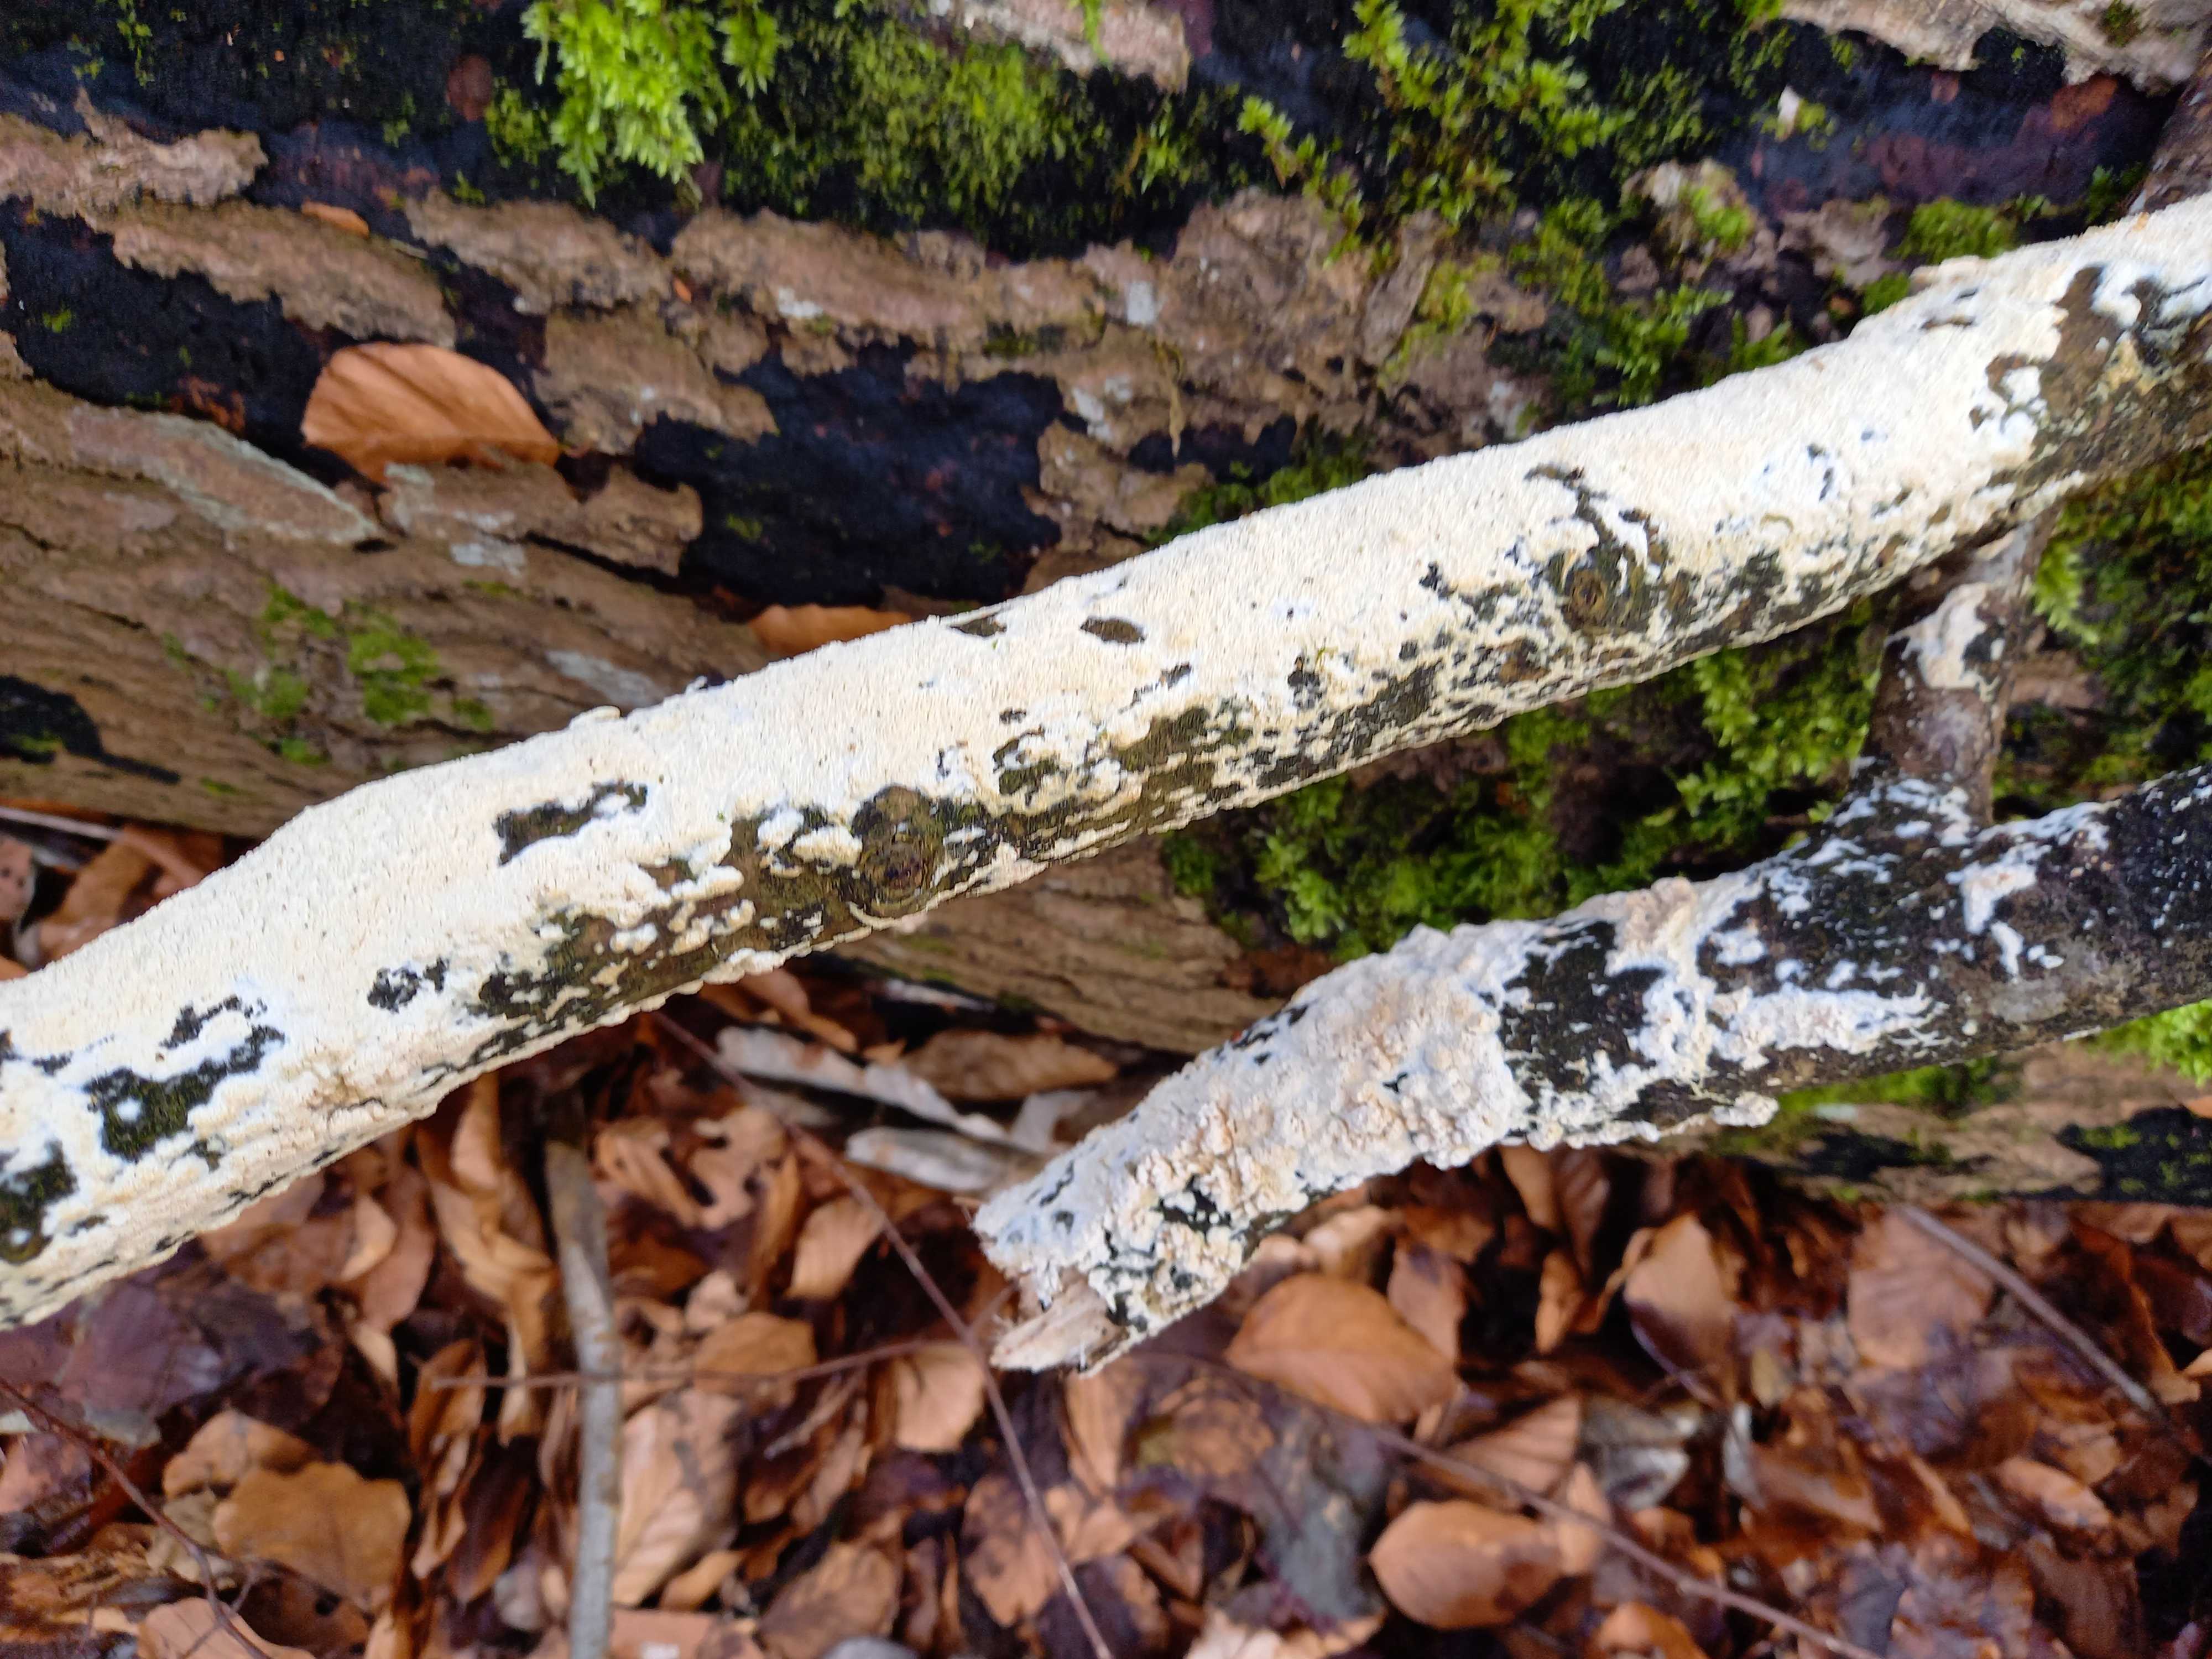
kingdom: Fungi
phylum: Basidiomycota
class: Agaricomycetes
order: Hymenochaetales
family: Schizoporaceae
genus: Schizopora
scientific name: Schizopora paradoxa
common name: hvid tandsvamp
